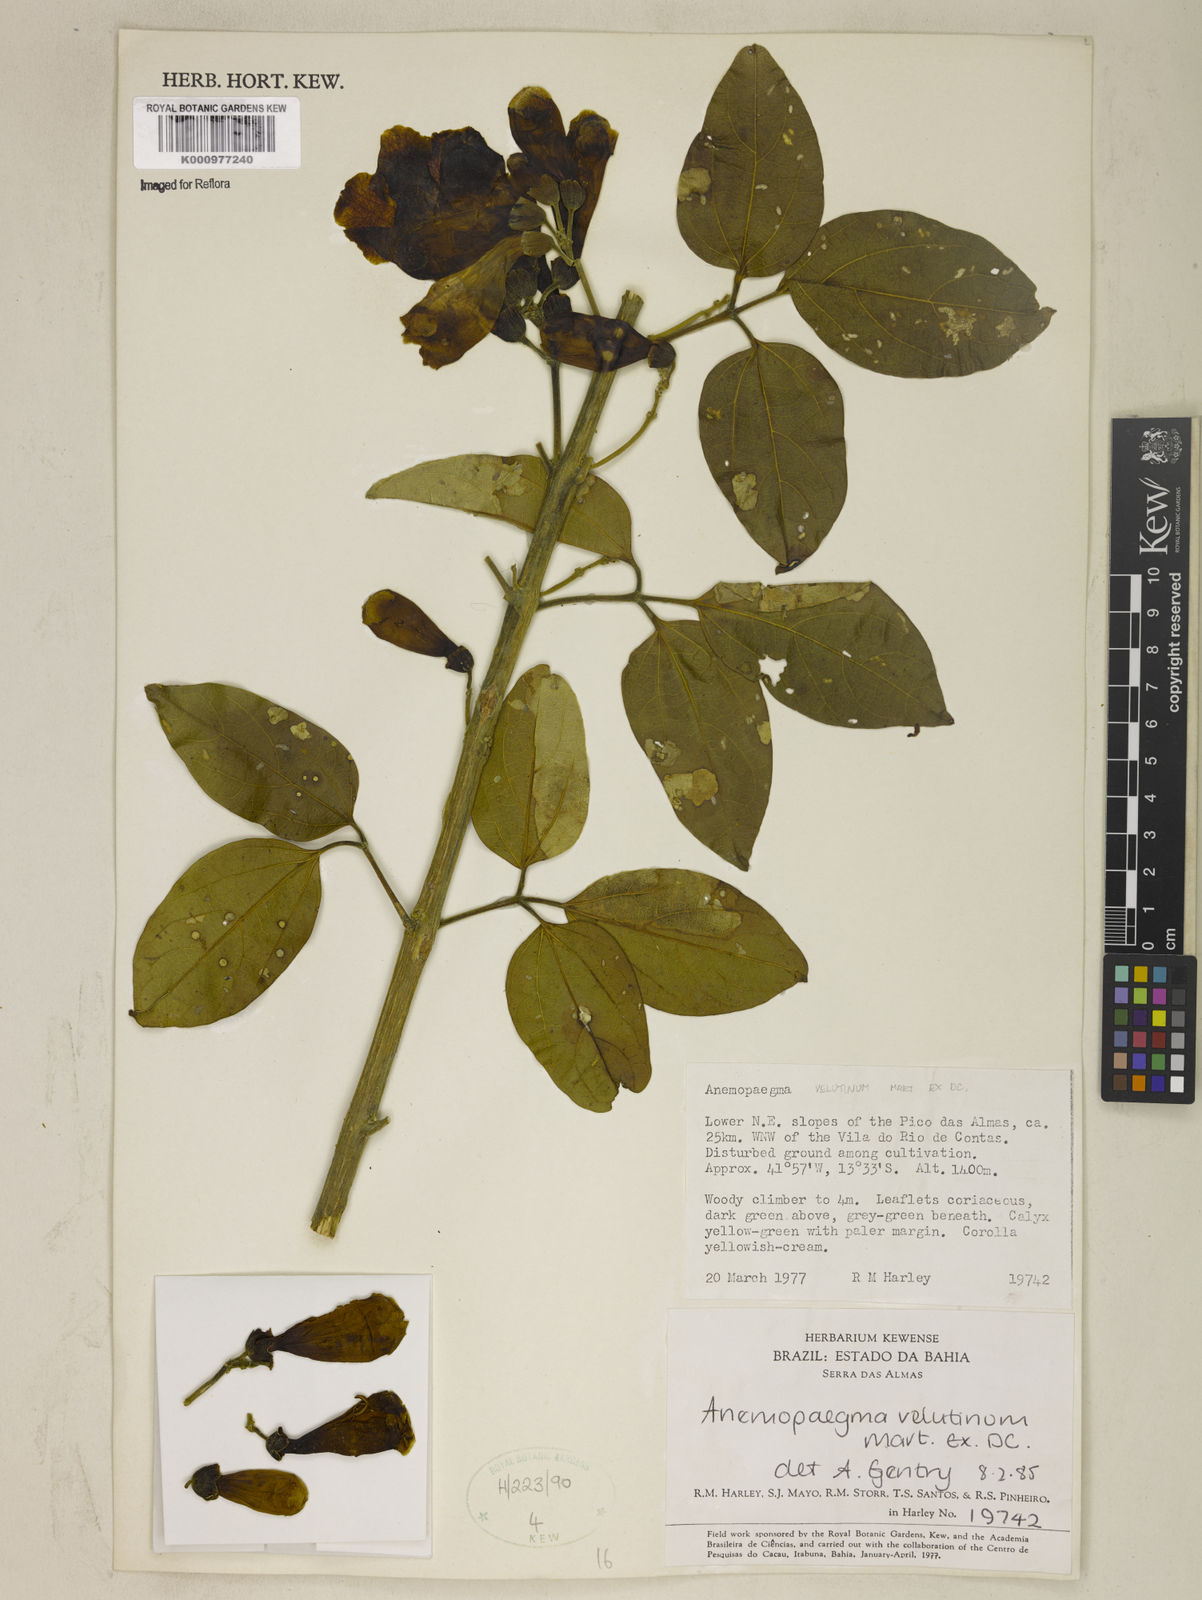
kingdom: Plantae
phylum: Tracheophyta
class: Magnoliopsida
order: Lamiales
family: Bignoniaceae
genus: Anemopaegma
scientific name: Anemopaegma velutinum
